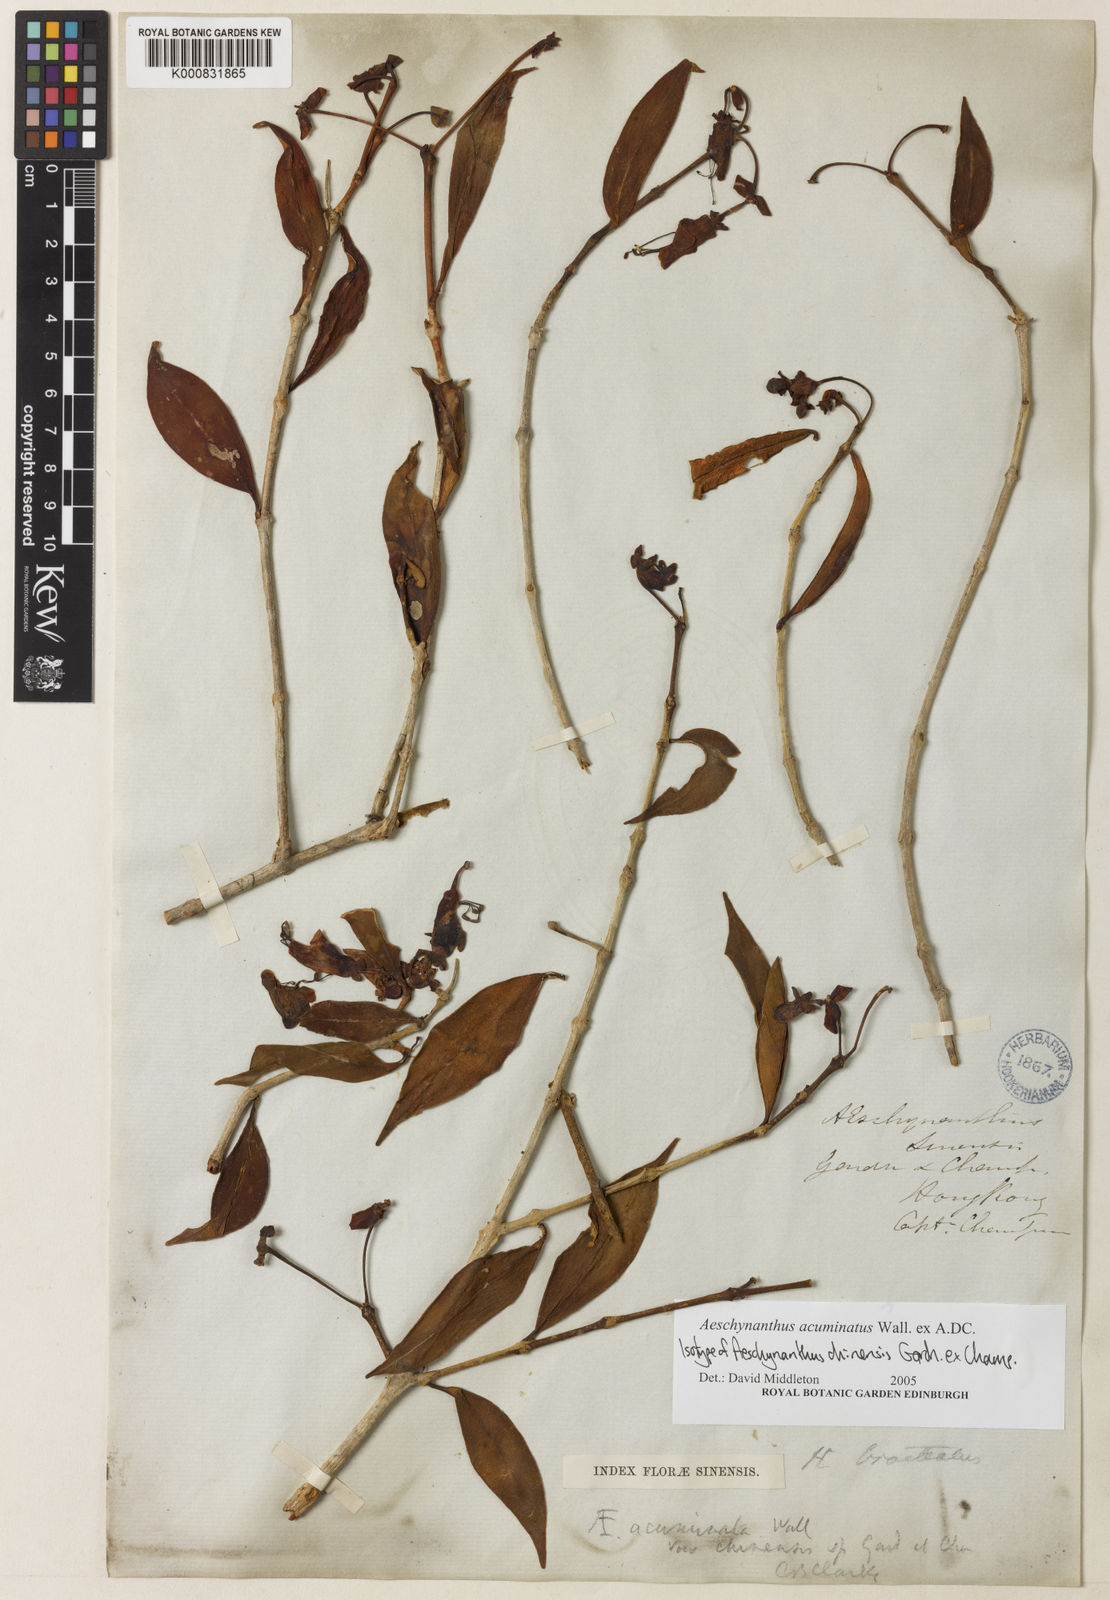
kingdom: Plantae
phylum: Tracheophyta
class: Magnoliopsida
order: Lamiales
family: Gesneriaceae
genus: Aeschynanthus
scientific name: Aeschynanthus acuminatus
